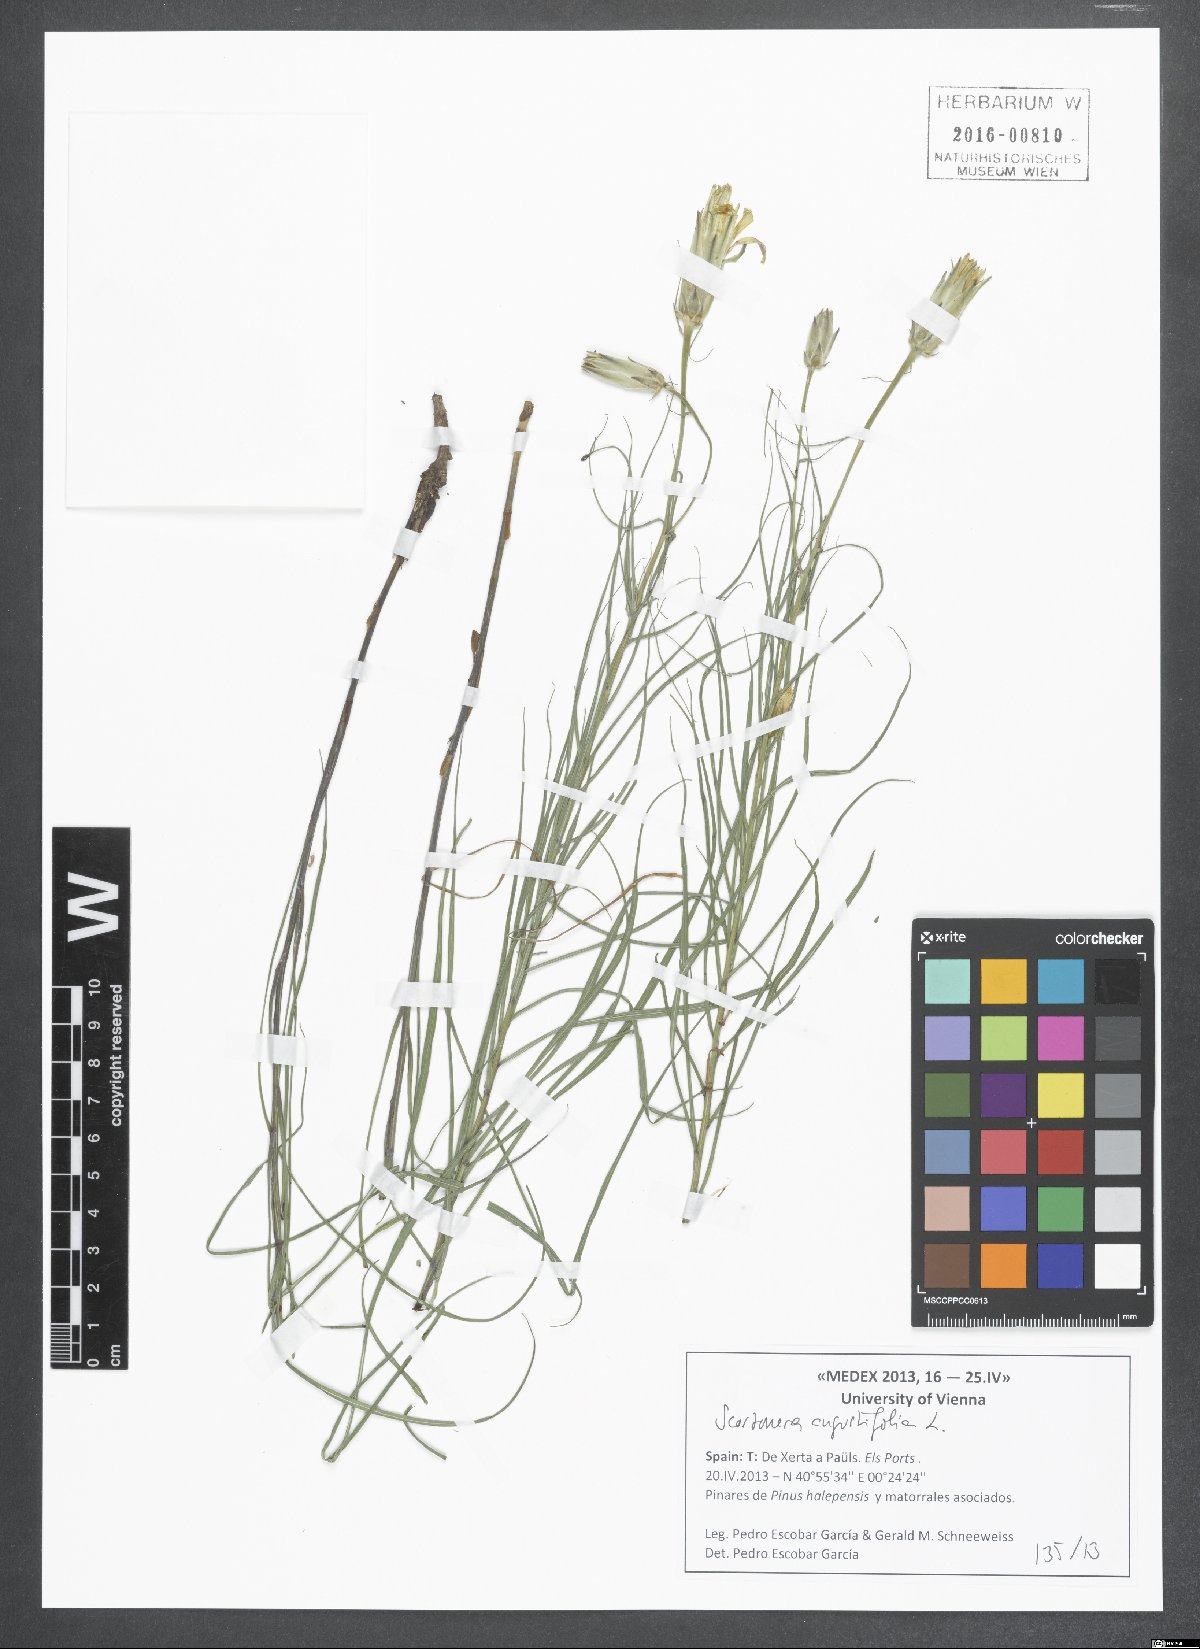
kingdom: Plantae
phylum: Tracheophyta
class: Magnoliopsida
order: Asterales
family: Asteraceae
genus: Scorzonera
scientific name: Scorzonera angustifolia
